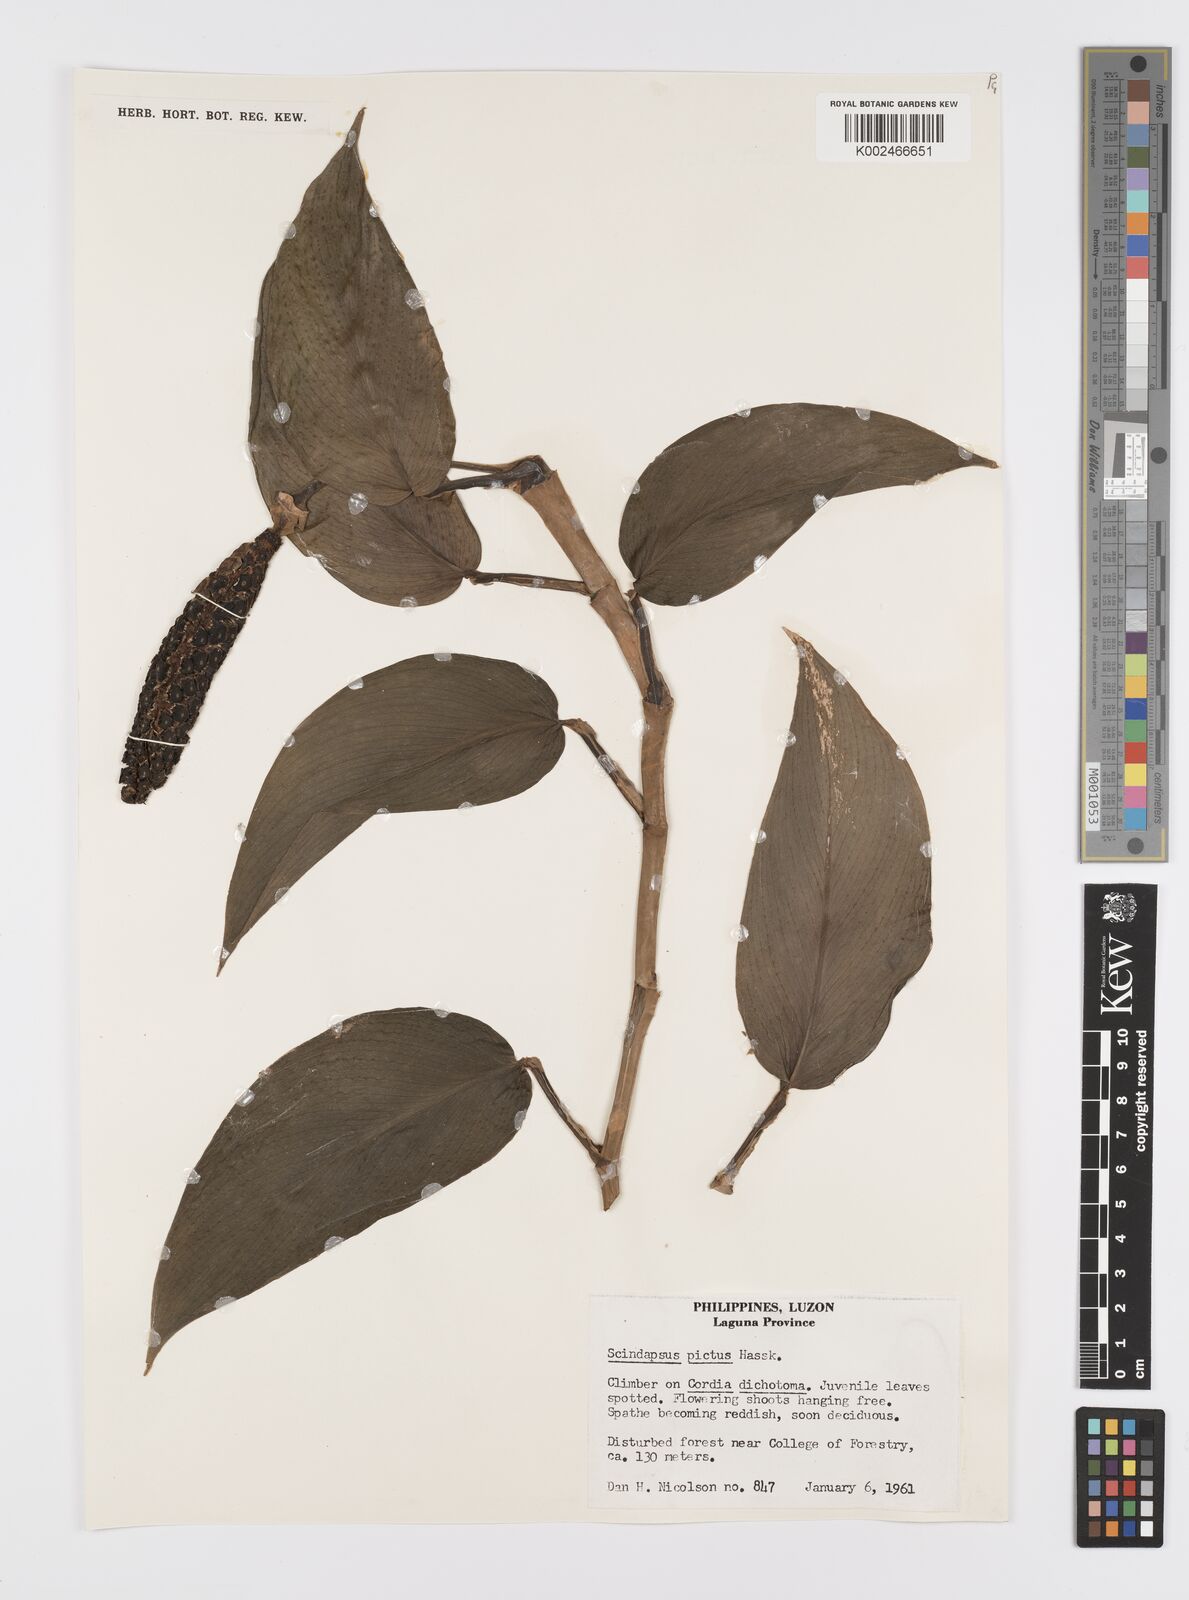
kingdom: Plantae
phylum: Tracheophyta
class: Liliopsida
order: Alismatales
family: Araceae
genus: Scindapsus
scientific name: Scindapsus pictus
